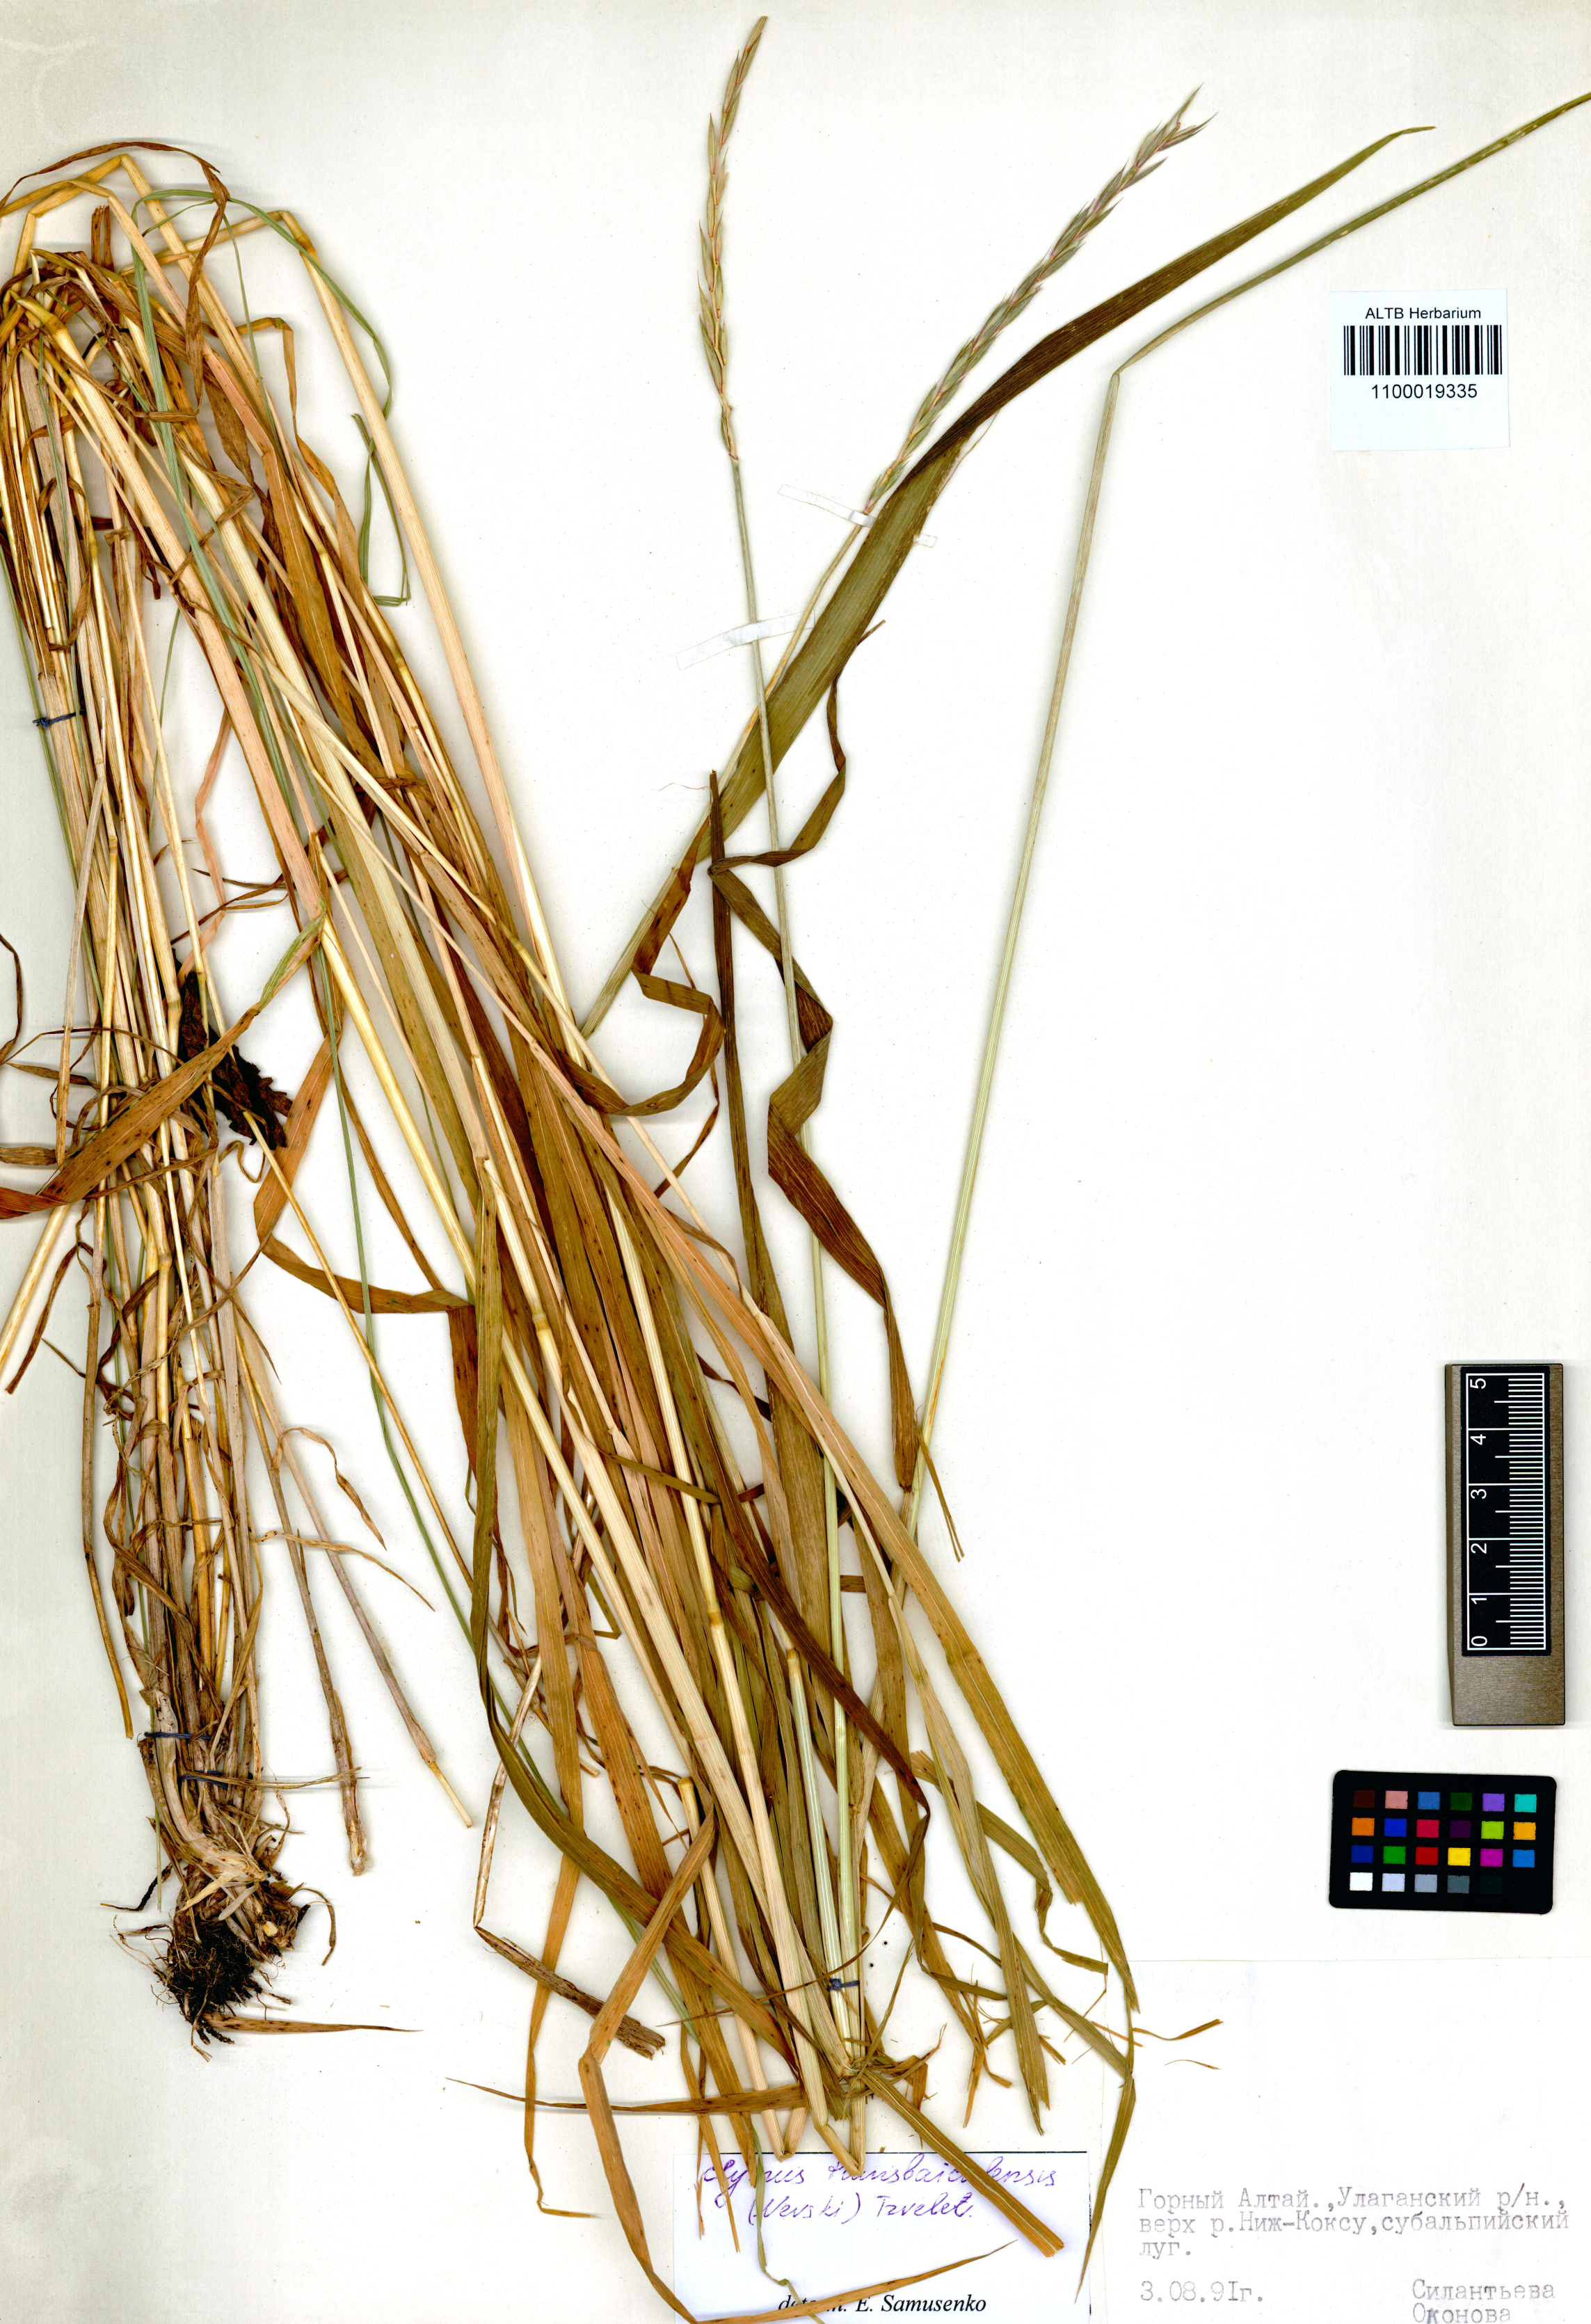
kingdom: Plantae
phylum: Tracheophyta
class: Liliopsida
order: Poales
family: Poaceae
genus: Elymus
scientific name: Elymus mutabilis
